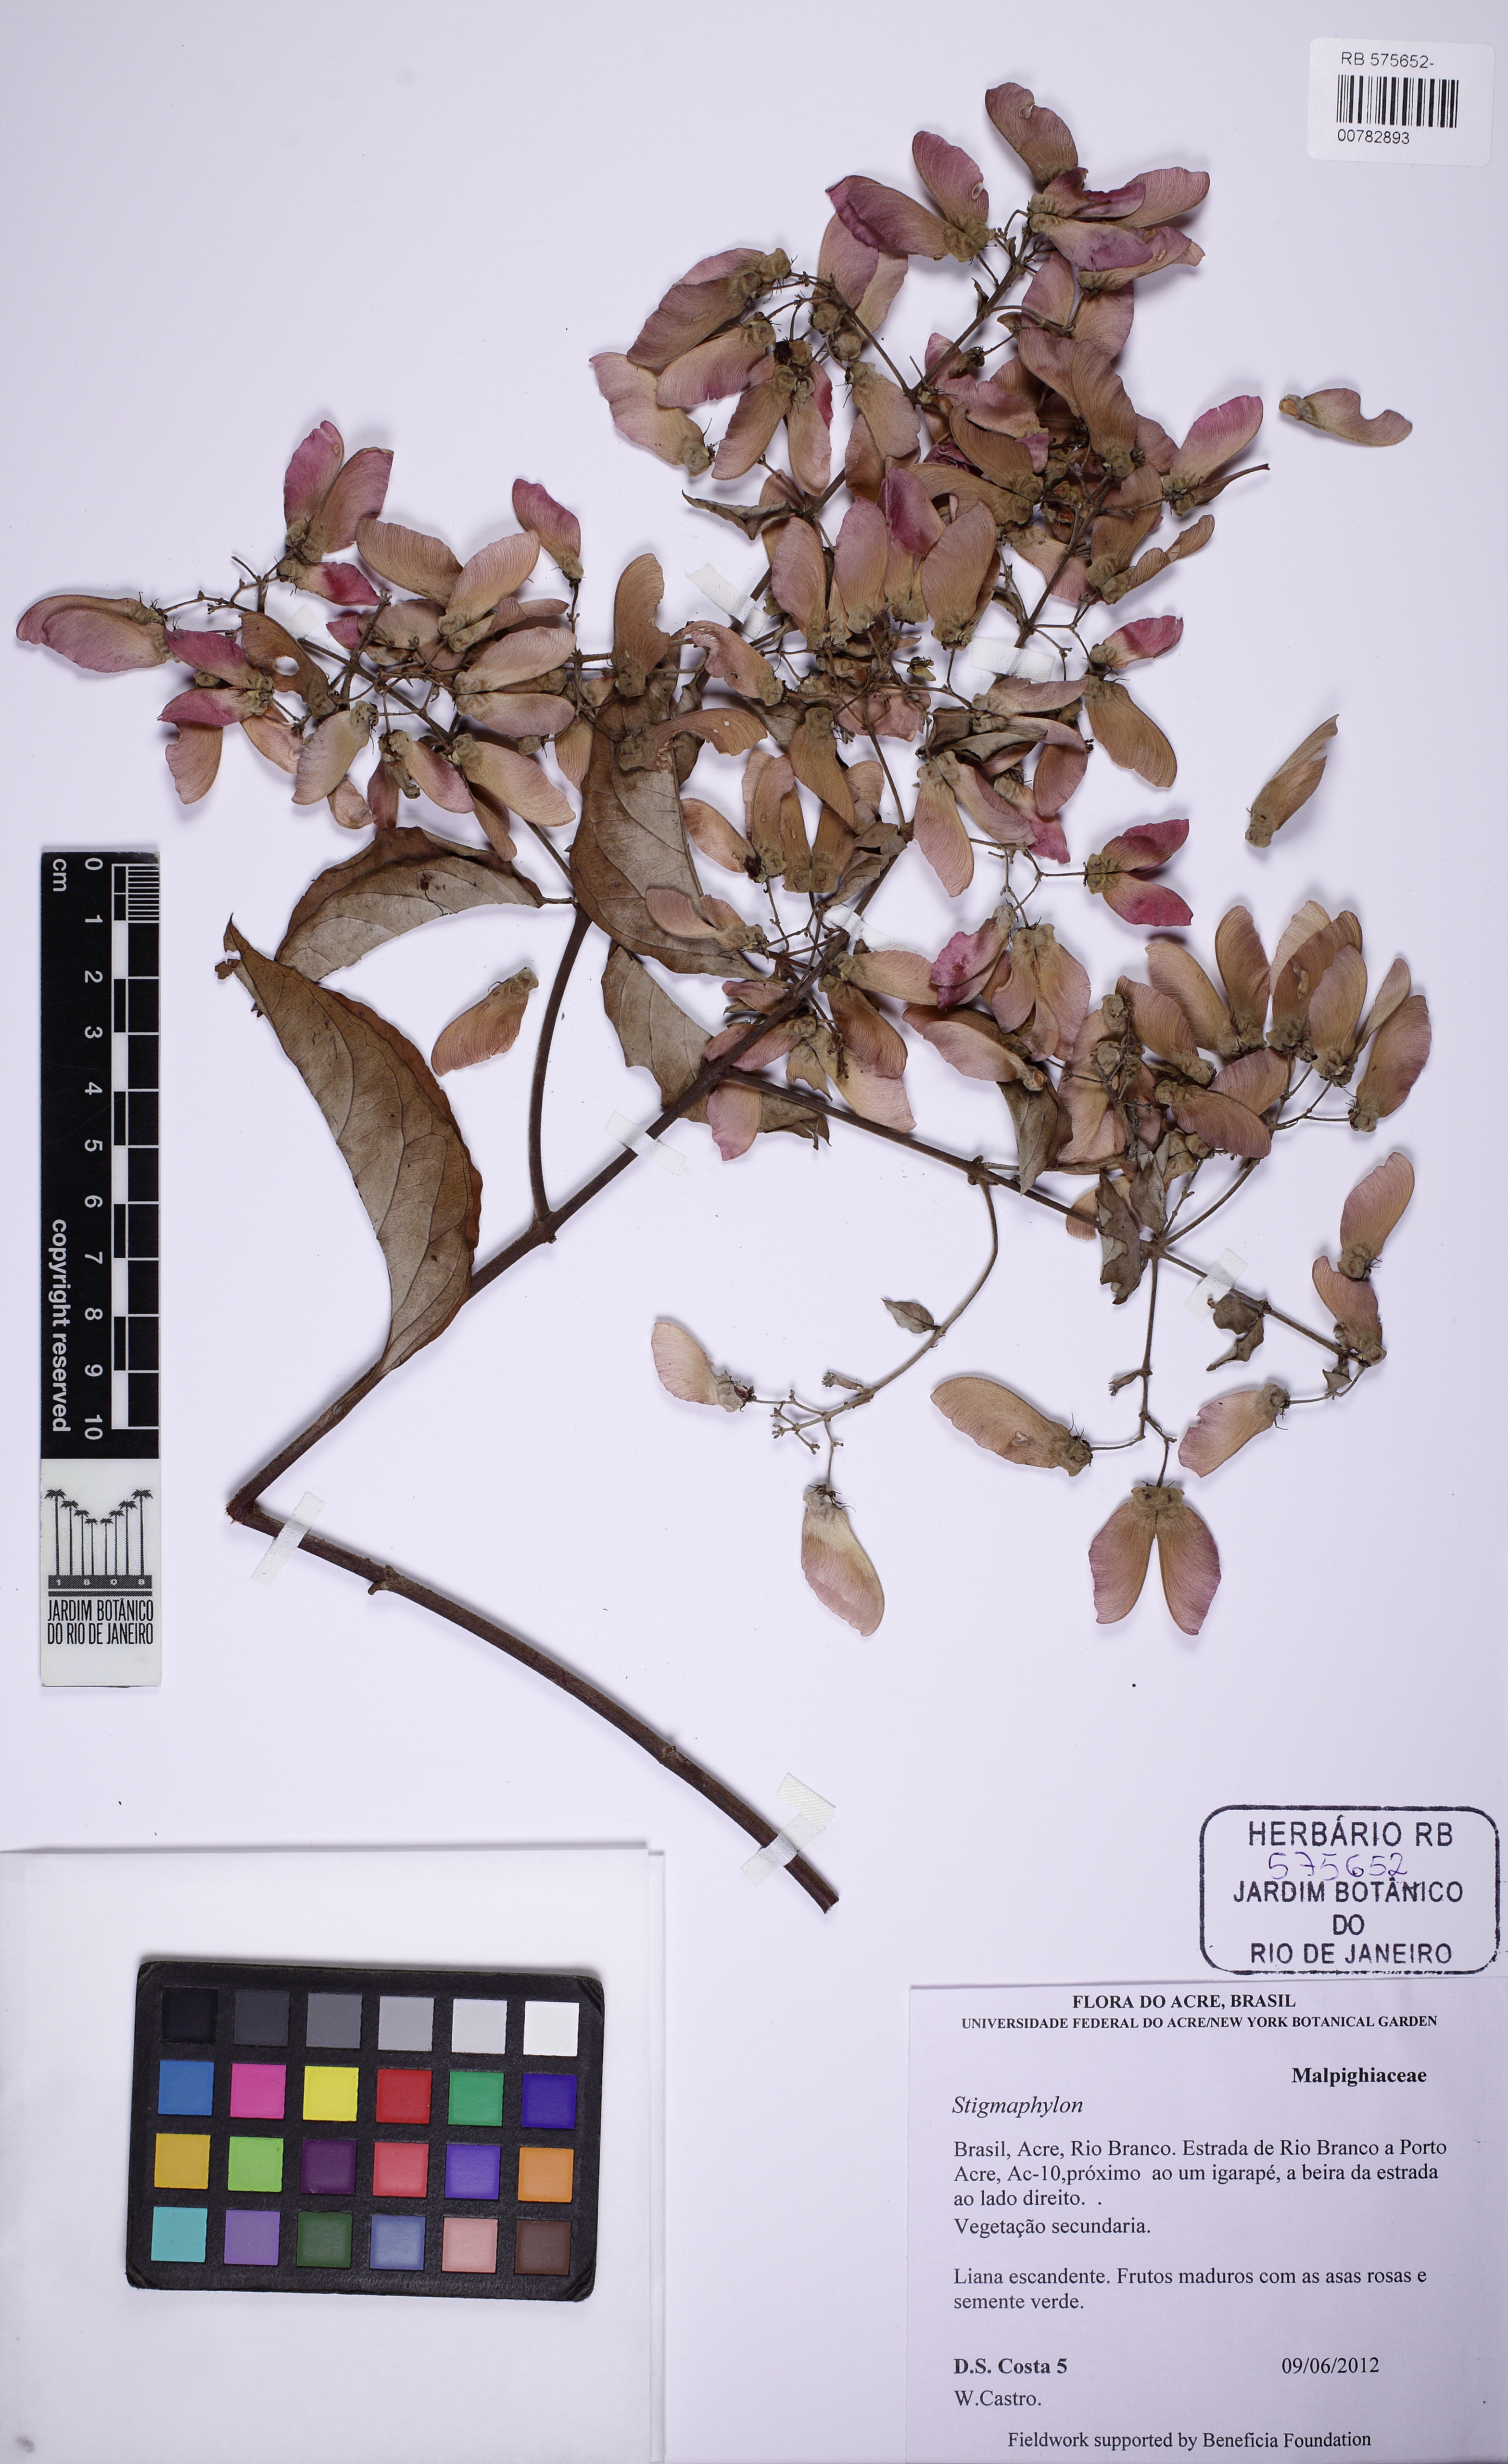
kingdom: Plantae
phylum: Tracheophyta
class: Magnoliopsida
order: Malpighiales
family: Malpighiaceae
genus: Banisteriopsis
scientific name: Banisteriopsis
